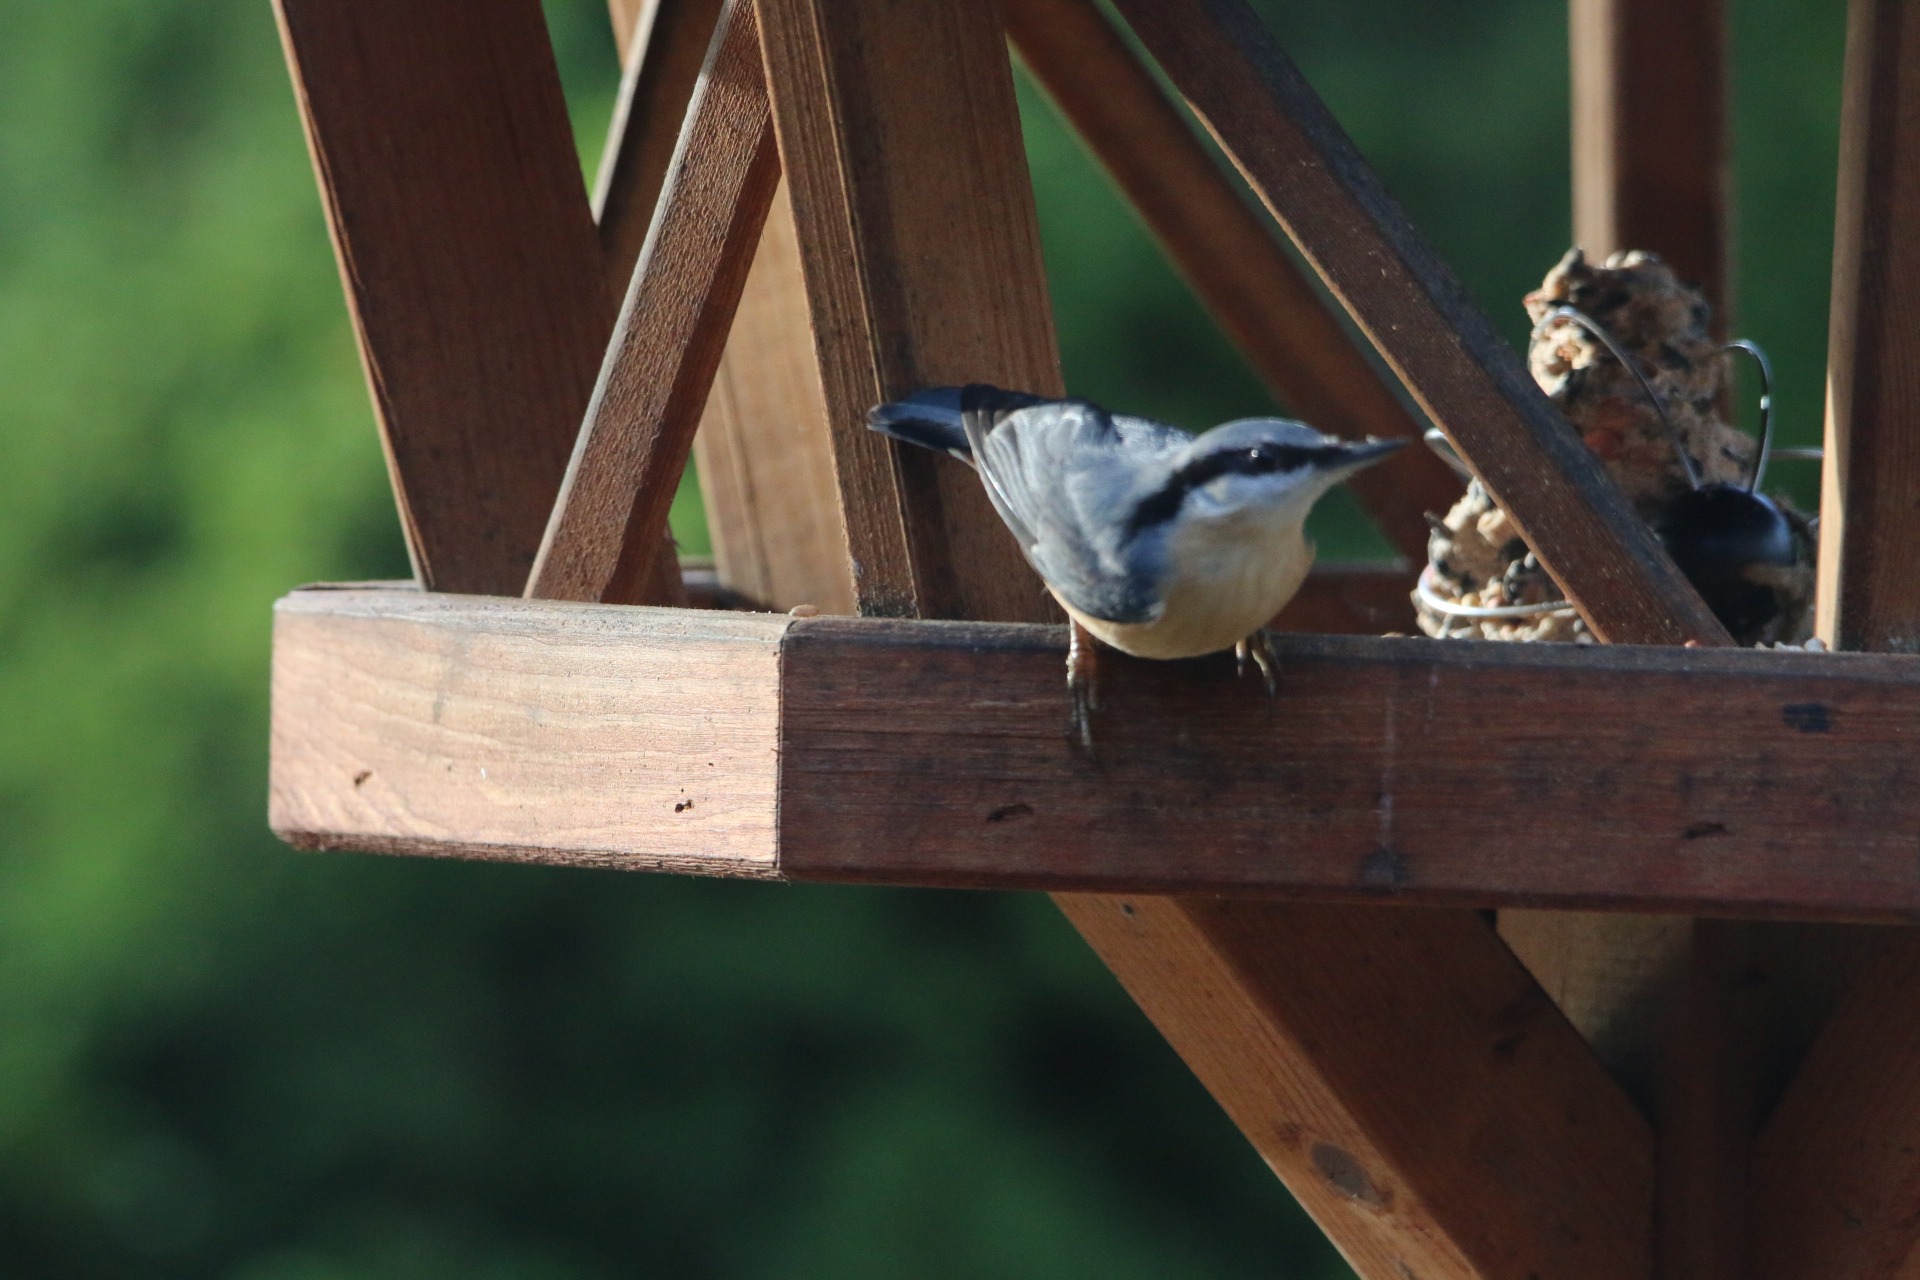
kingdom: Animalia
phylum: Chordata
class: Aves
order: Passeriformes
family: Sittidae
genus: Sitta
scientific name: Sitta europaea
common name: Spætmejse
